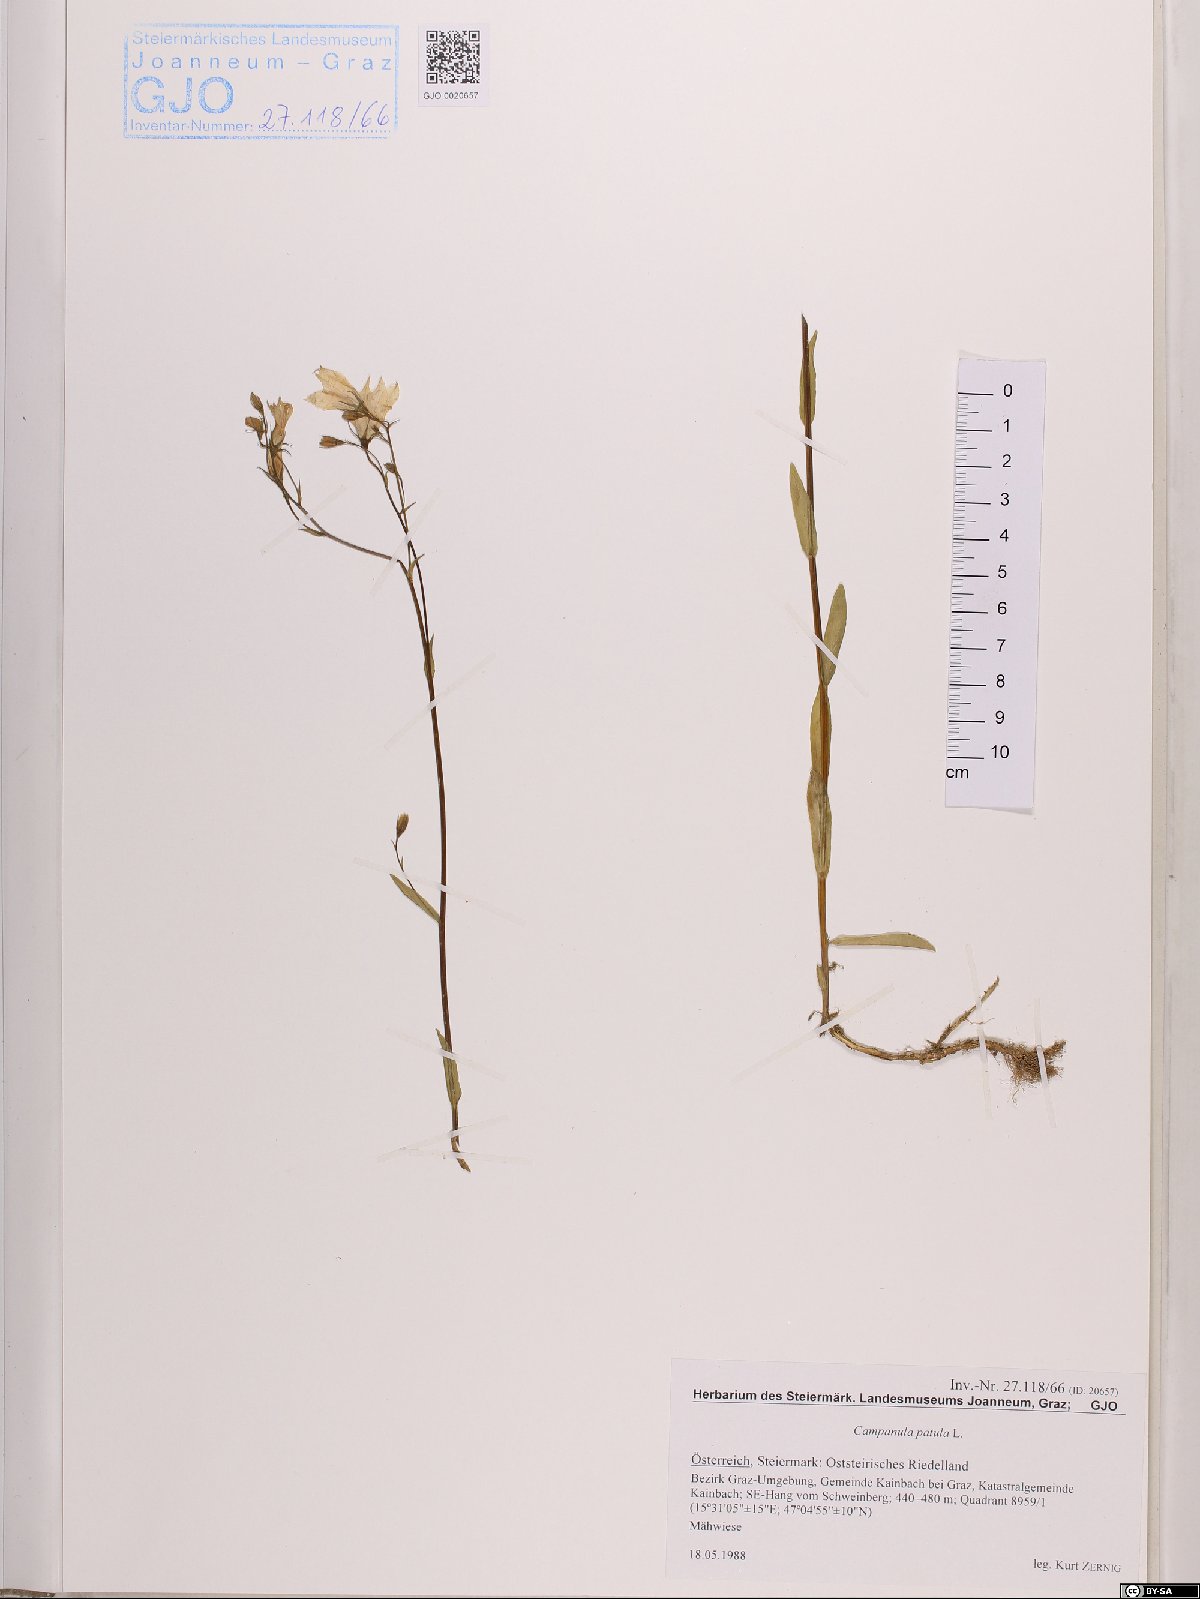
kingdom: Plantae
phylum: Tracheophyta
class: Magnoliopsida
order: Asterales
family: Campanulaceae
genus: Campanula
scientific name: Campanula patula
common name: Spreading bellflower
